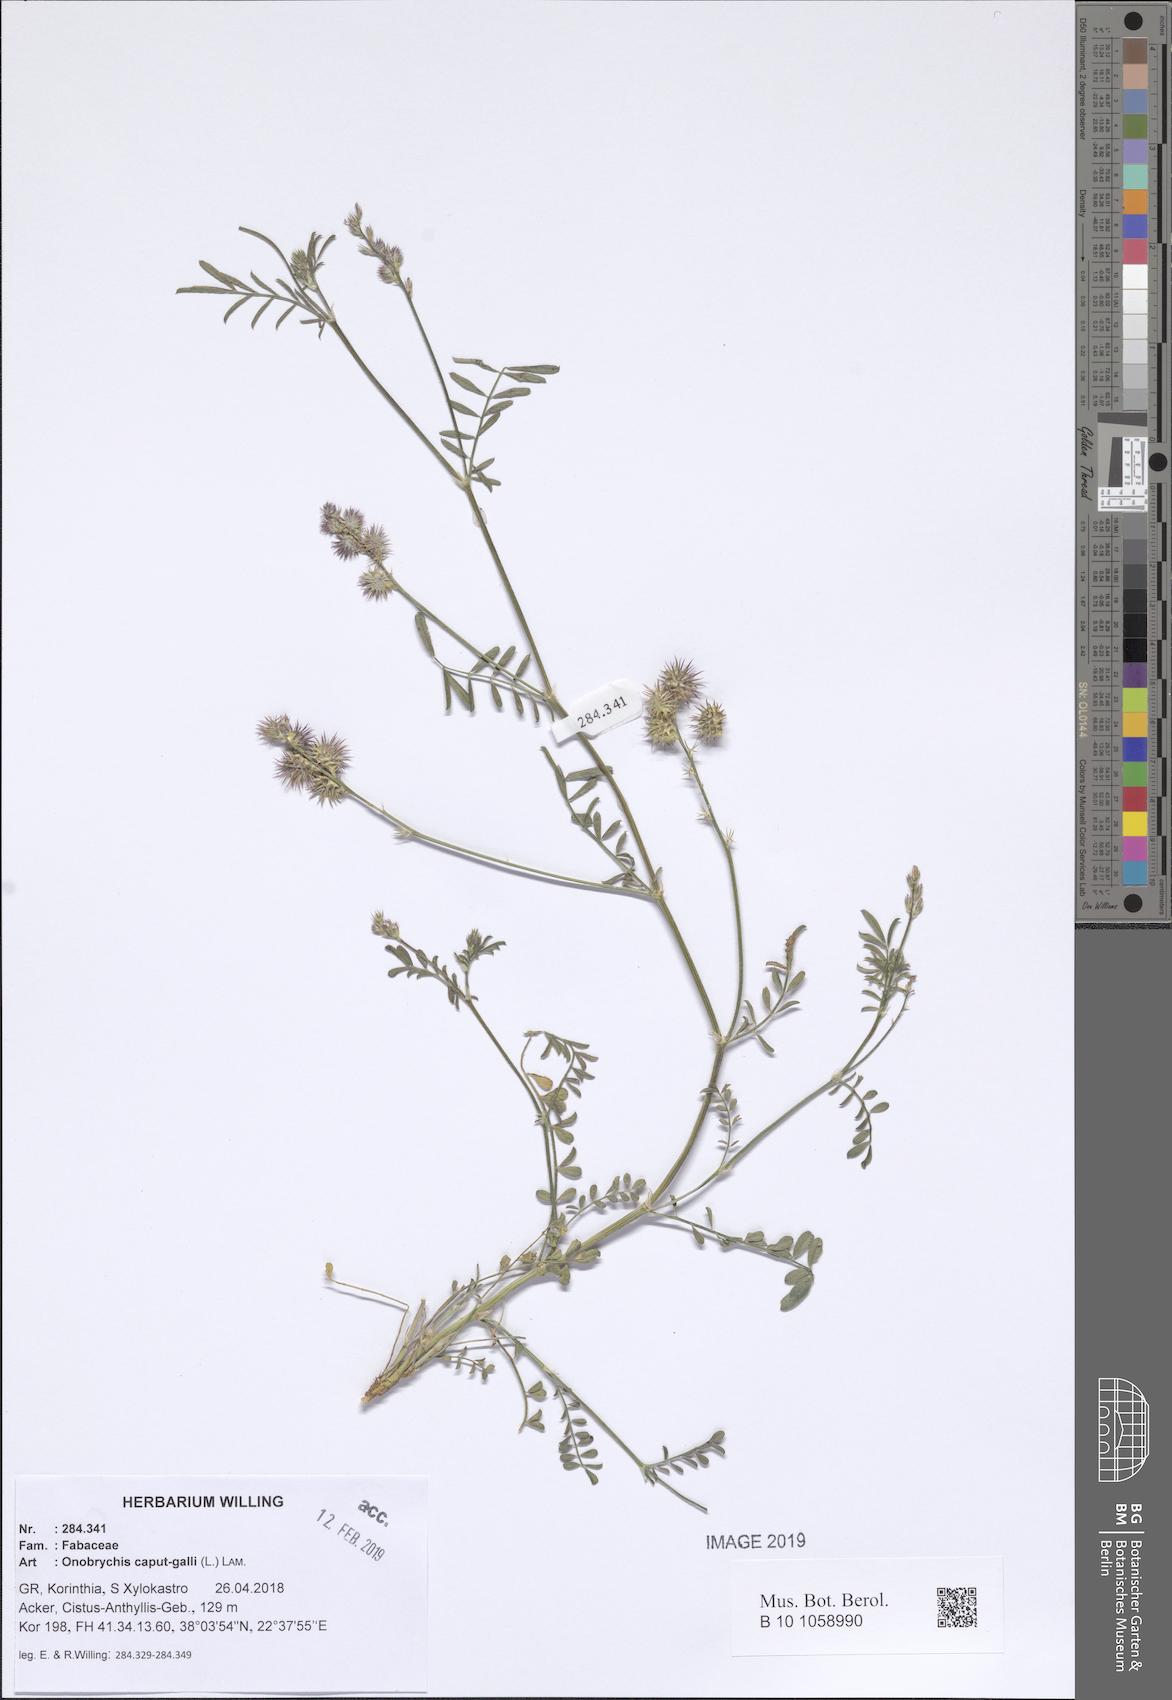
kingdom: Plantae
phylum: Tracheophyta
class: Magnoliopsida
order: Fabales
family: Fabaceae
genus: Onobrychis
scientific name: Onobrychis caput-galli
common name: Cockscomb sainfoin
